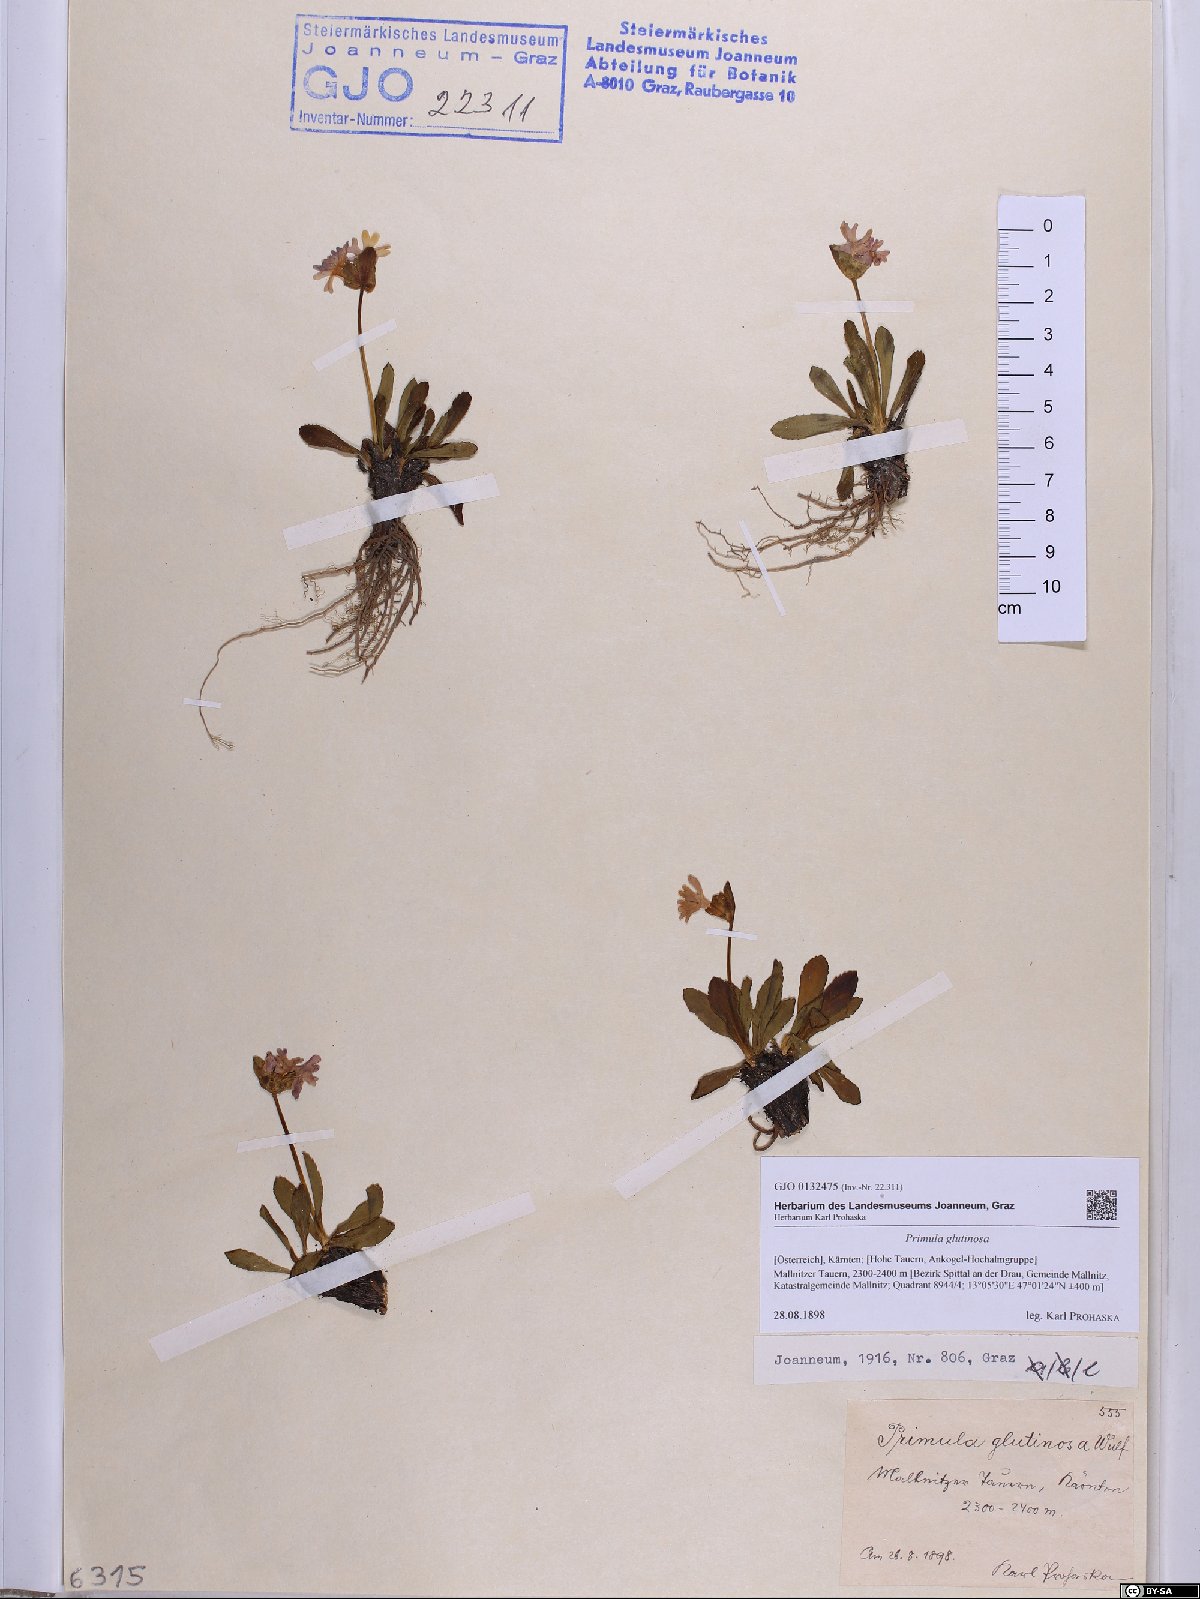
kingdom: Plantae
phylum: Tracheophyta
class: Magnoliopsida
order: Ericales
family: Primulaceae
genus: Primula
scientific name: Primula glutinosa
